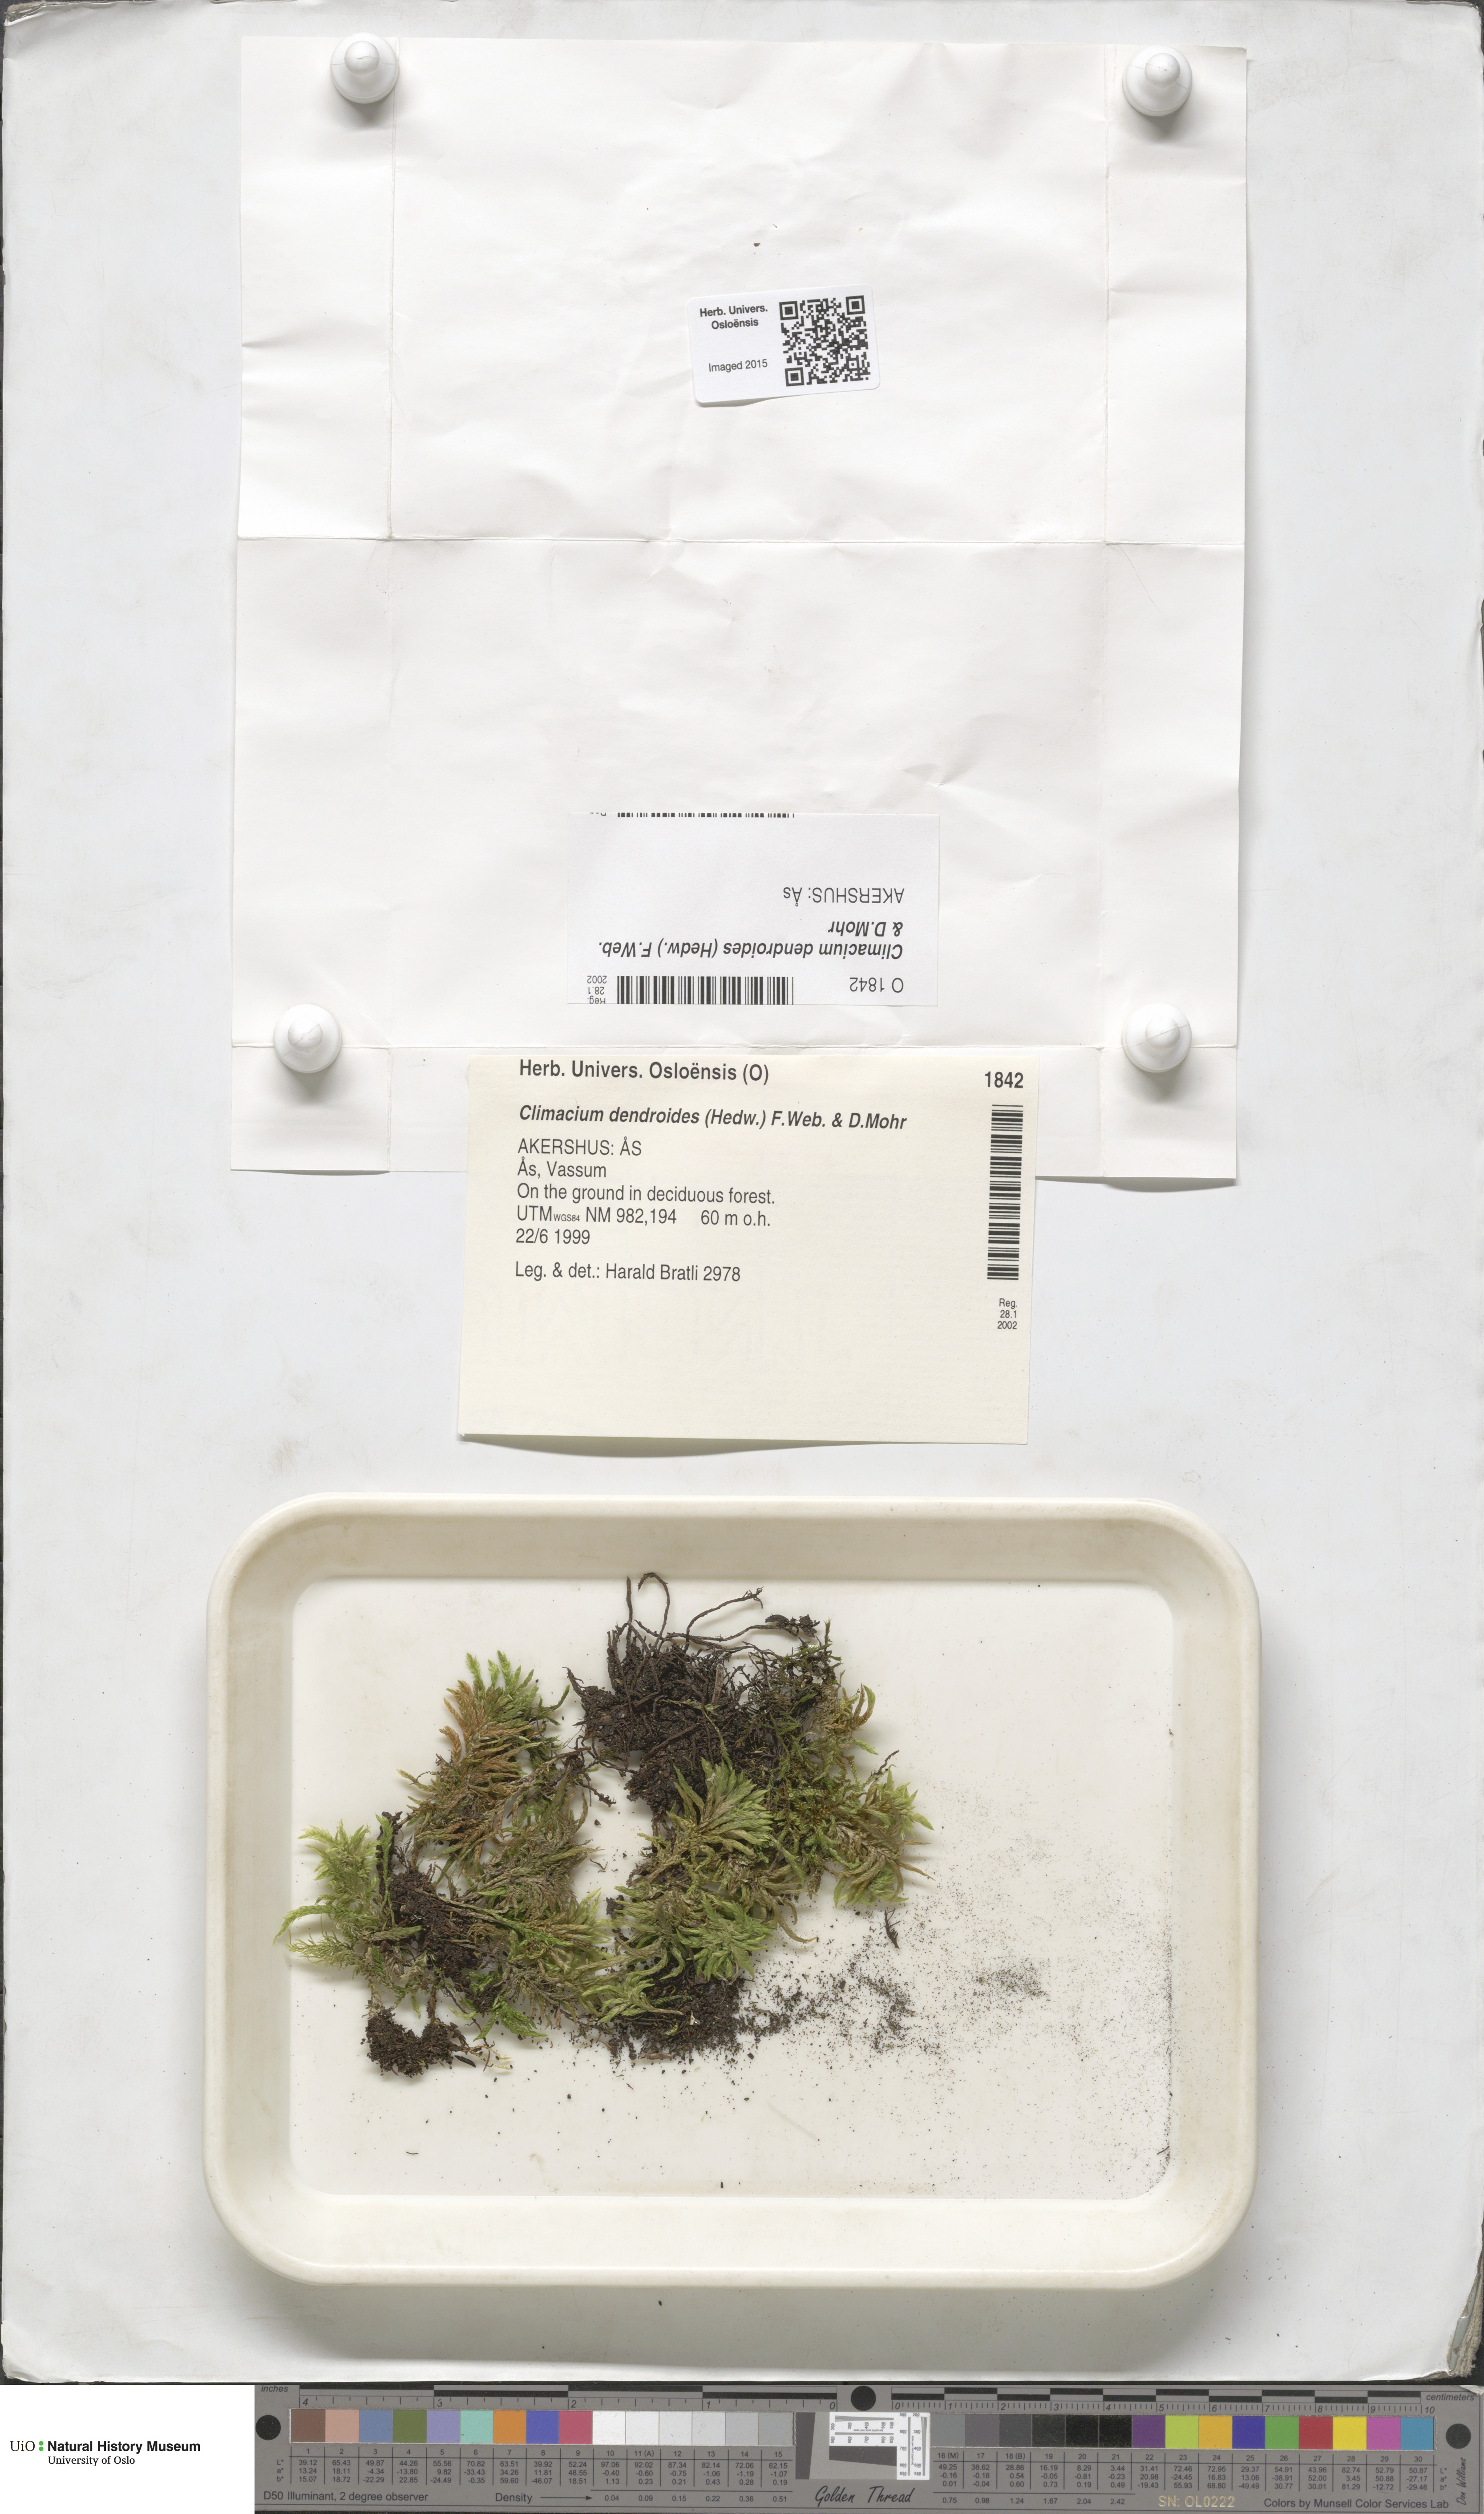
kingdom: Plantae
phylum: Bryophyta
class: Bryopsida
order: Hypnales
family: Climaciaceae
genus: Climacium
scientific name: Climacium dendroides
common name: Northern tree moss
